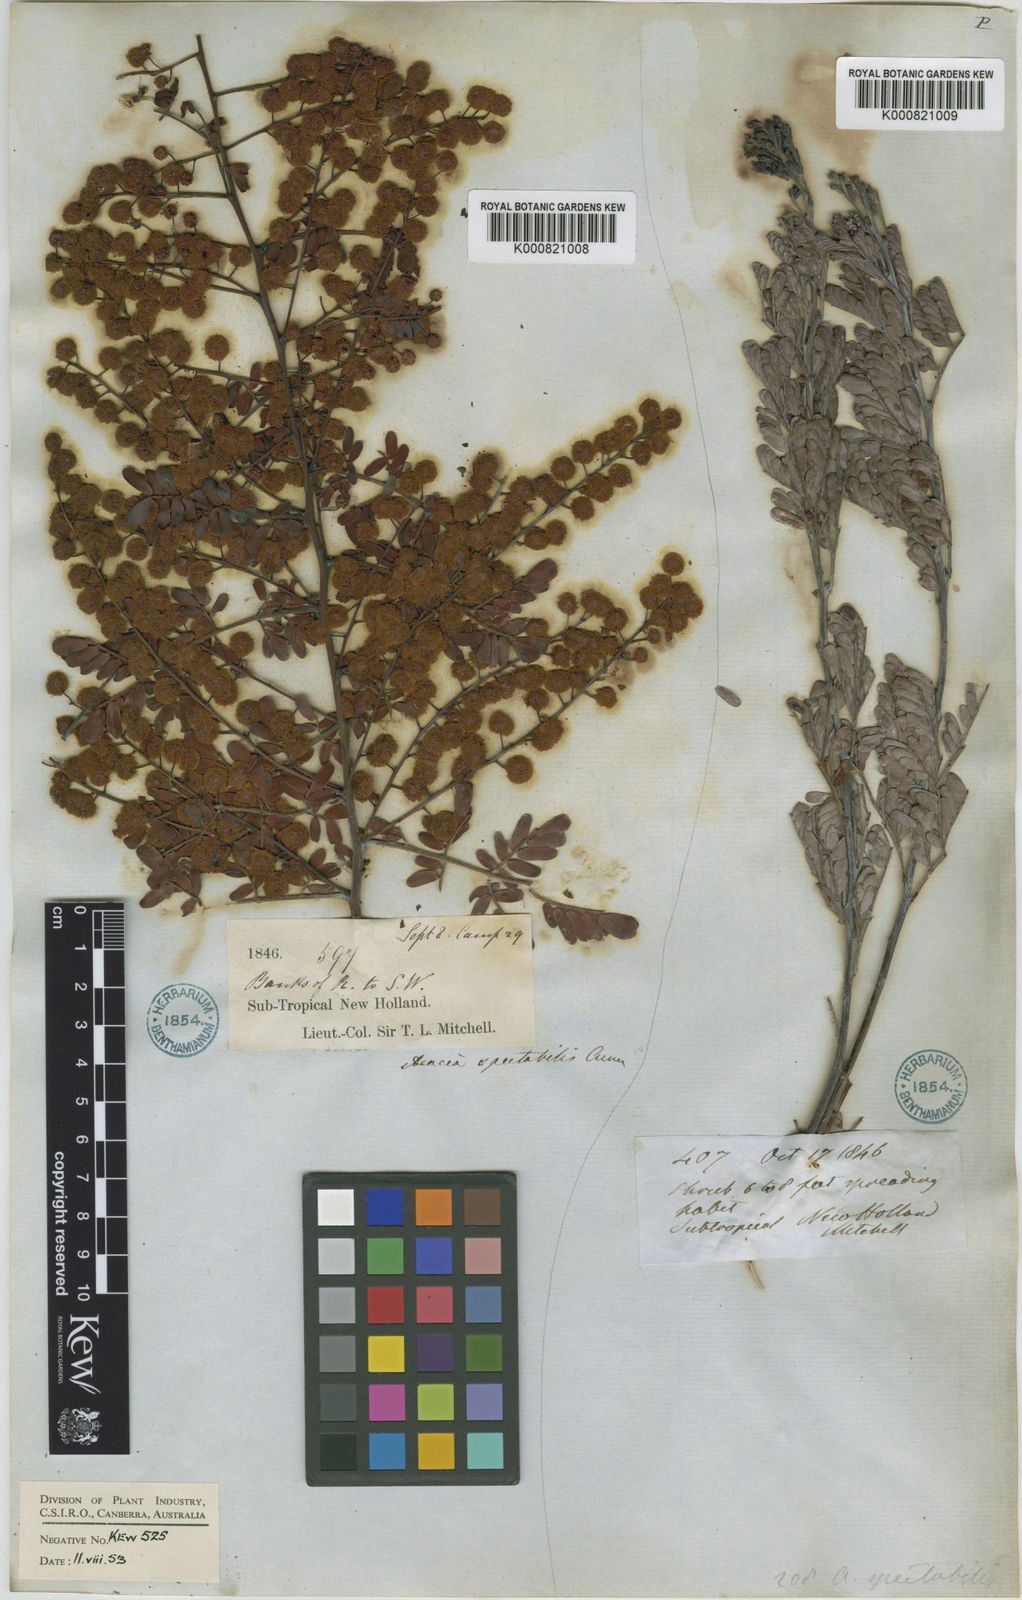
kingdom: Plantae
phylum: Tracheophyta
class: Magnoliopsida
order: Fabales
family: Fabaceae
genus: Acacia
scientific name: Acacia spectabilis
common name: Golden wattle
